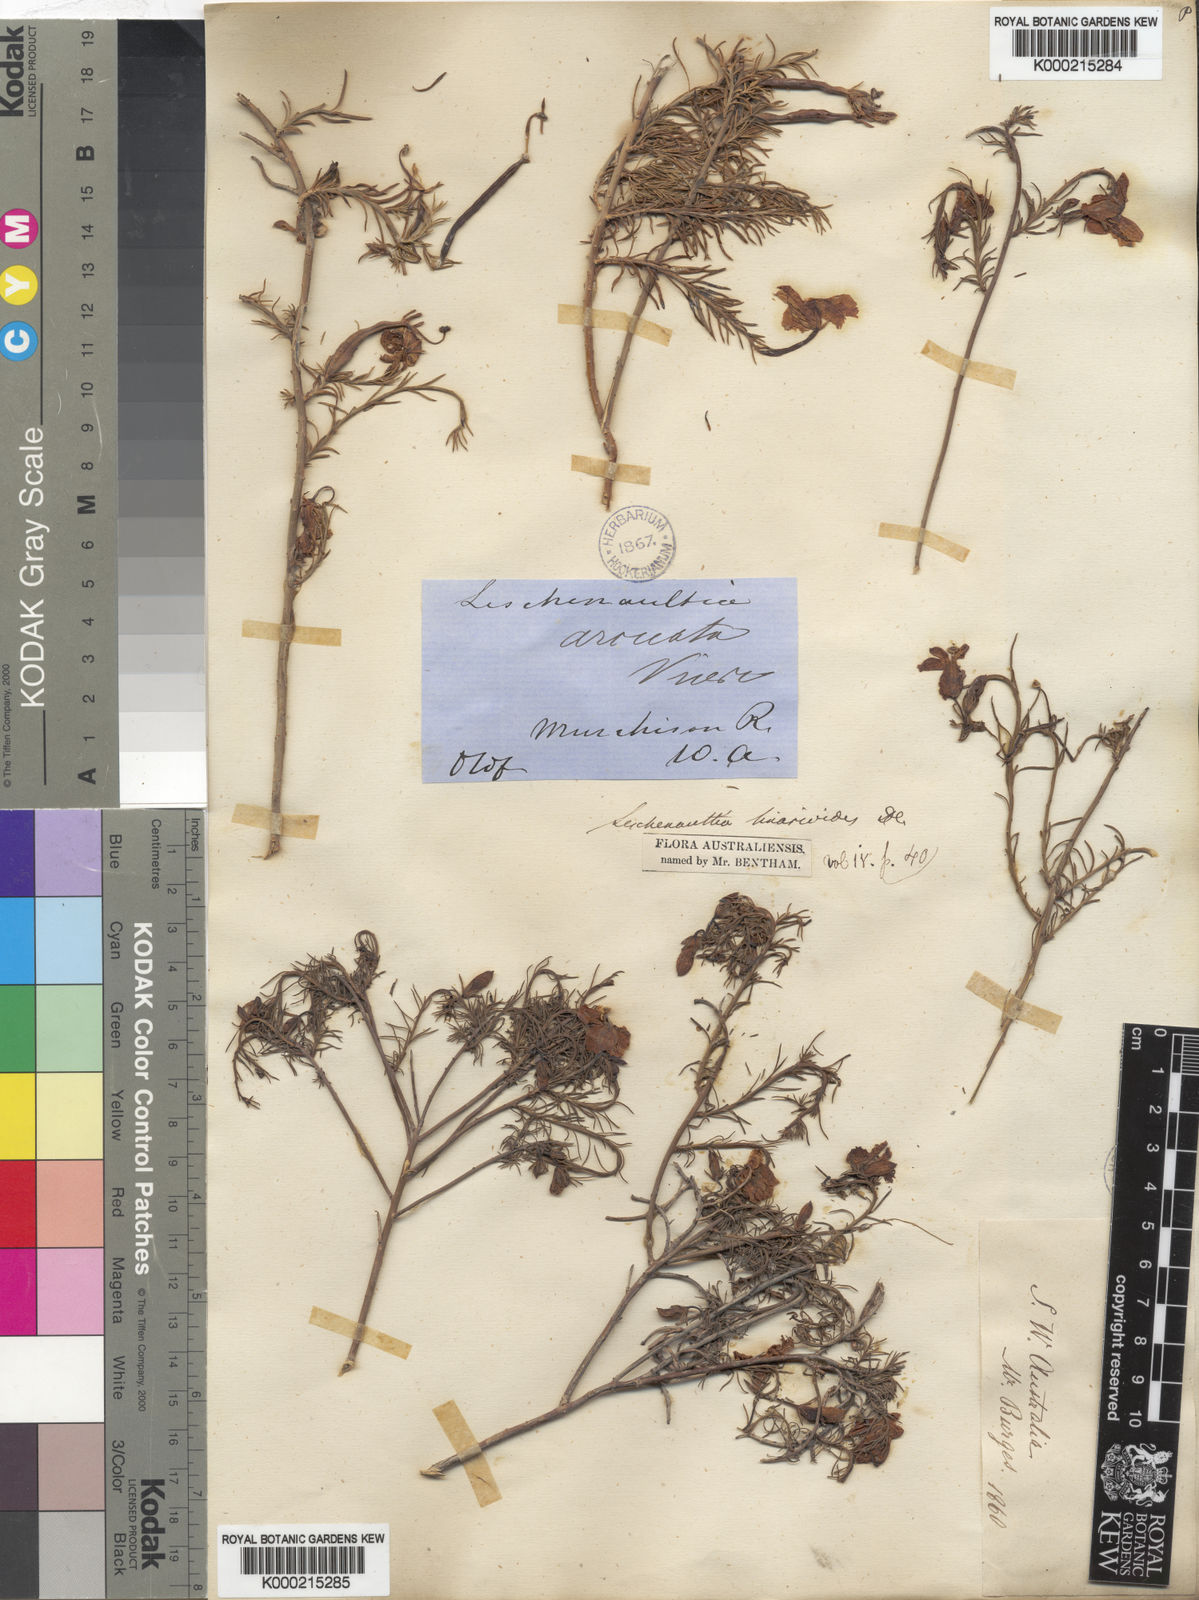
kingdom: Plantae
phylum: Tracheophyta
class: Magnoliopsida
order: Asterales
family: Goodeniaceae
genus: Leschenaultia
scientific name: Leschenaultia
